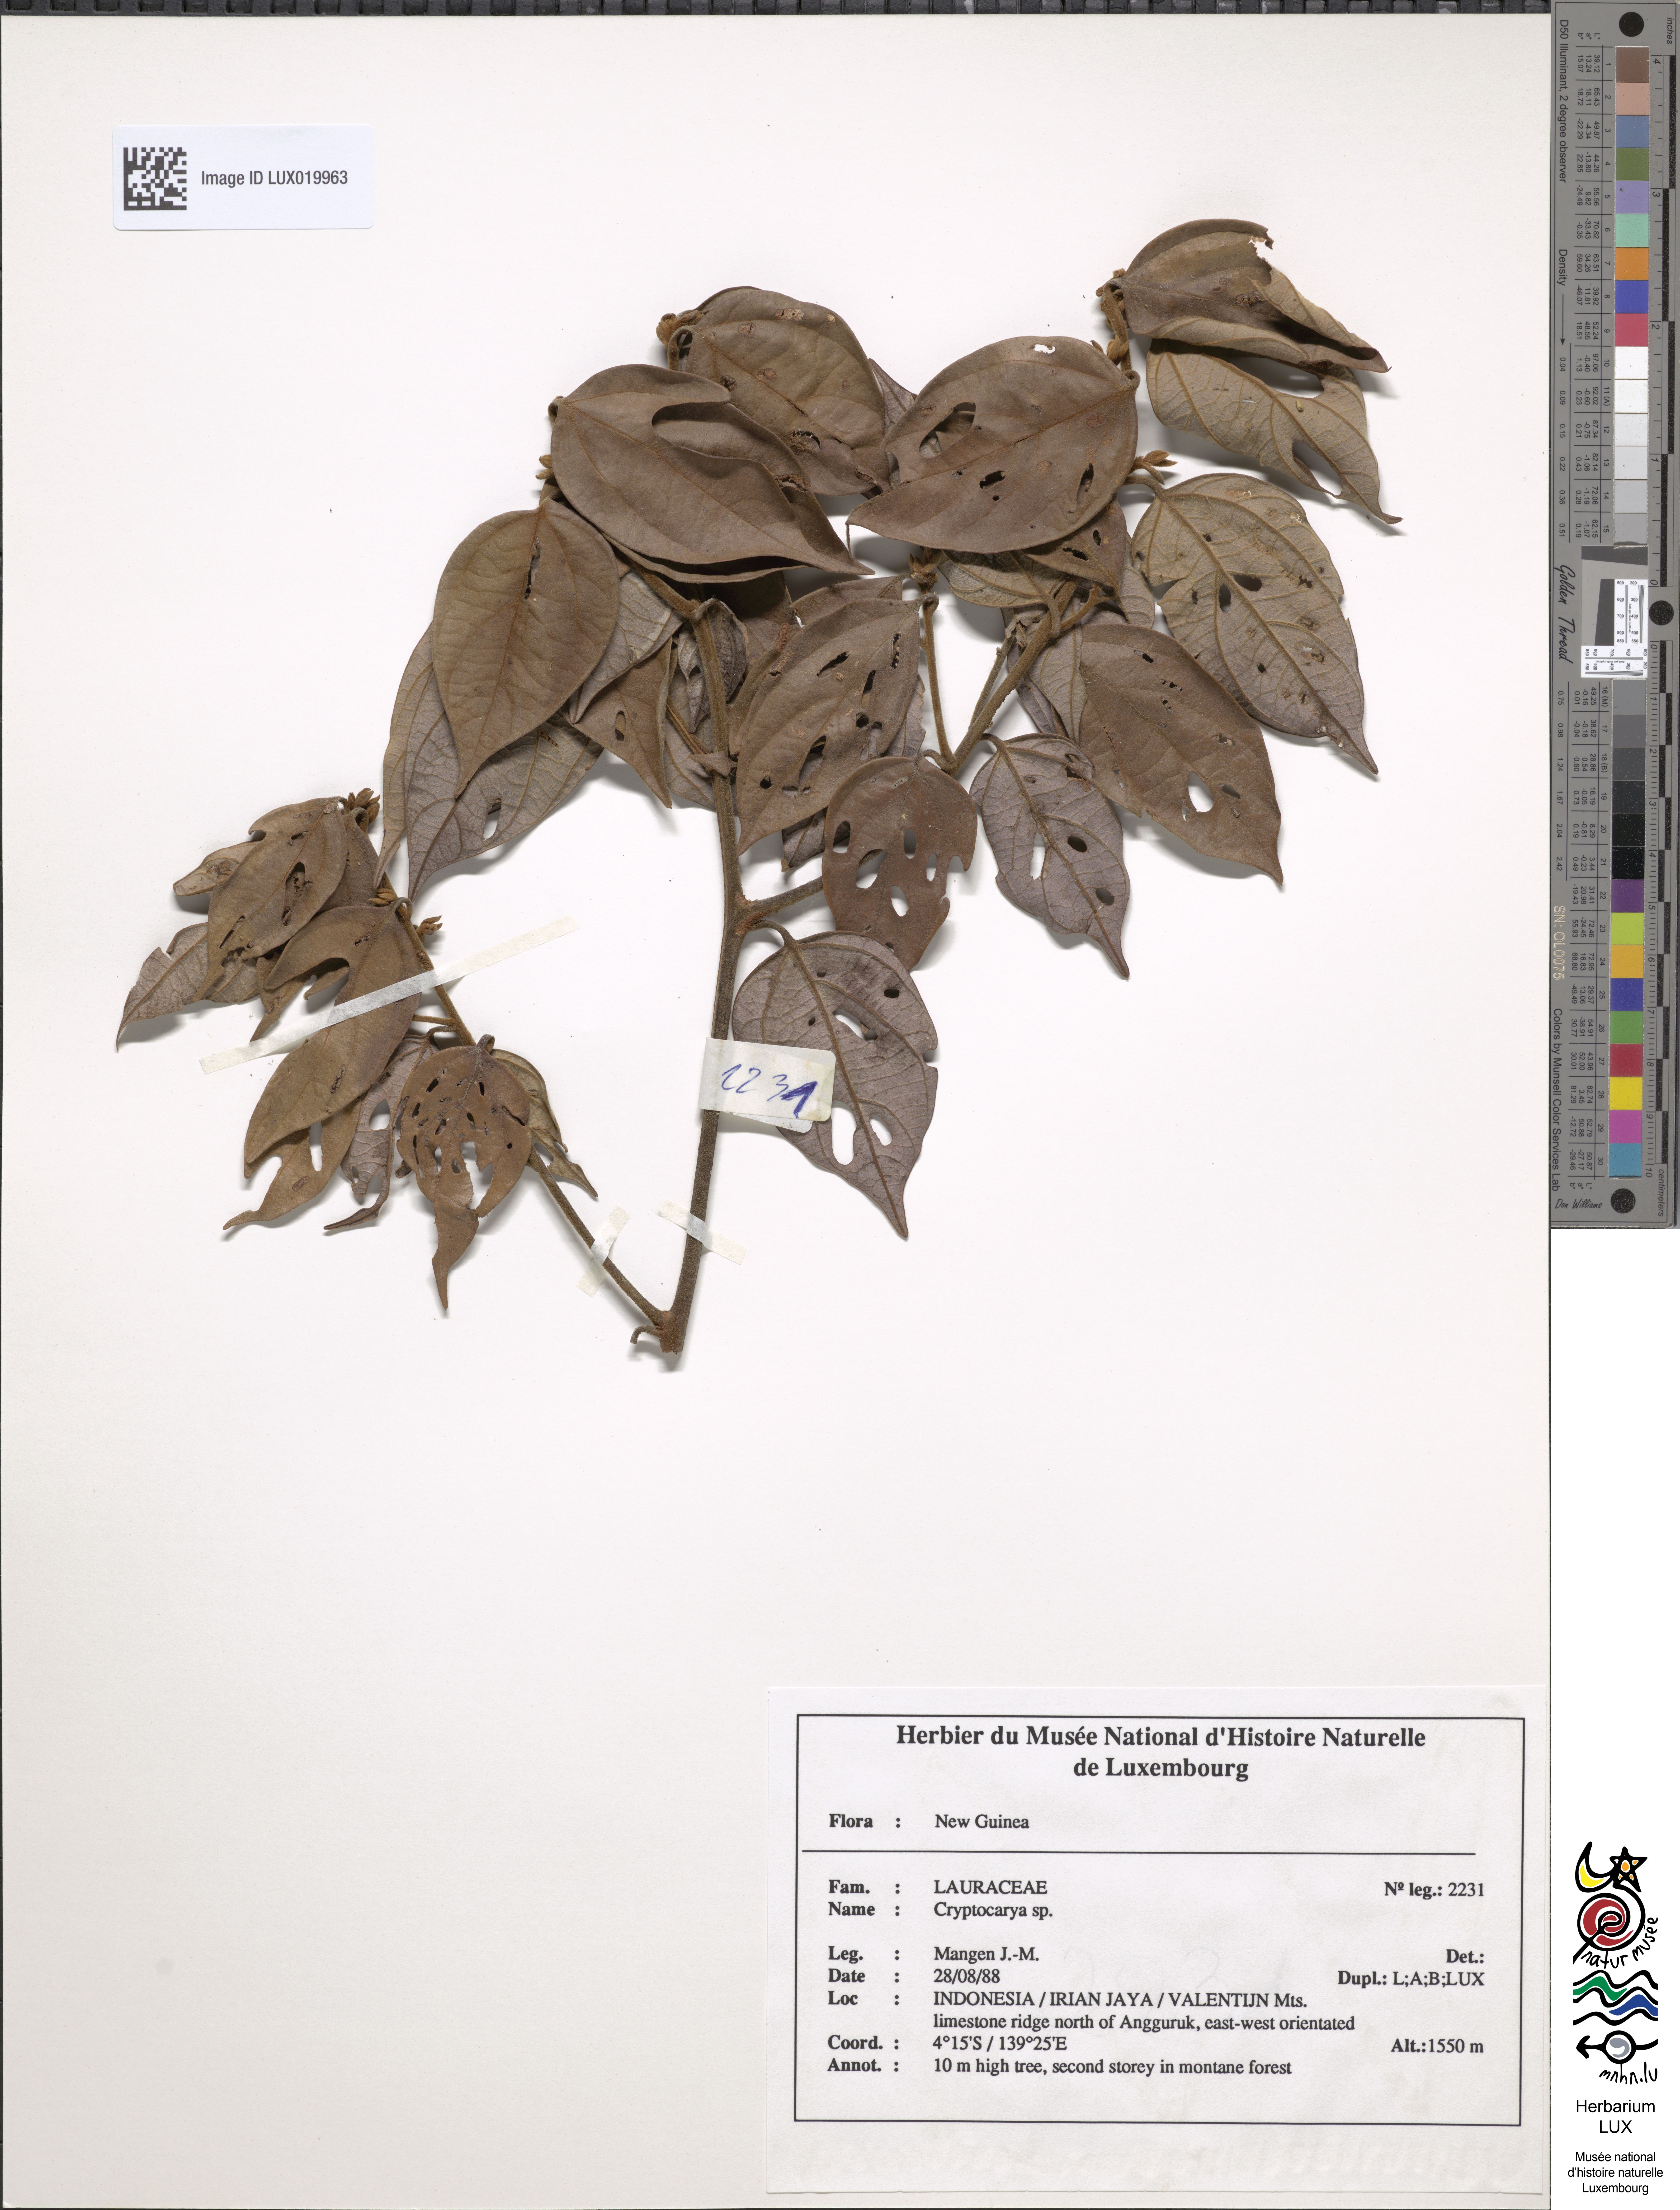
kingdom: Plantae
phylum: Tracheophyta
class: Magnoliopsida
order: Laurales
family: Lauraceae
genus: Cryptocarya
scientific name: Cryptocarya
